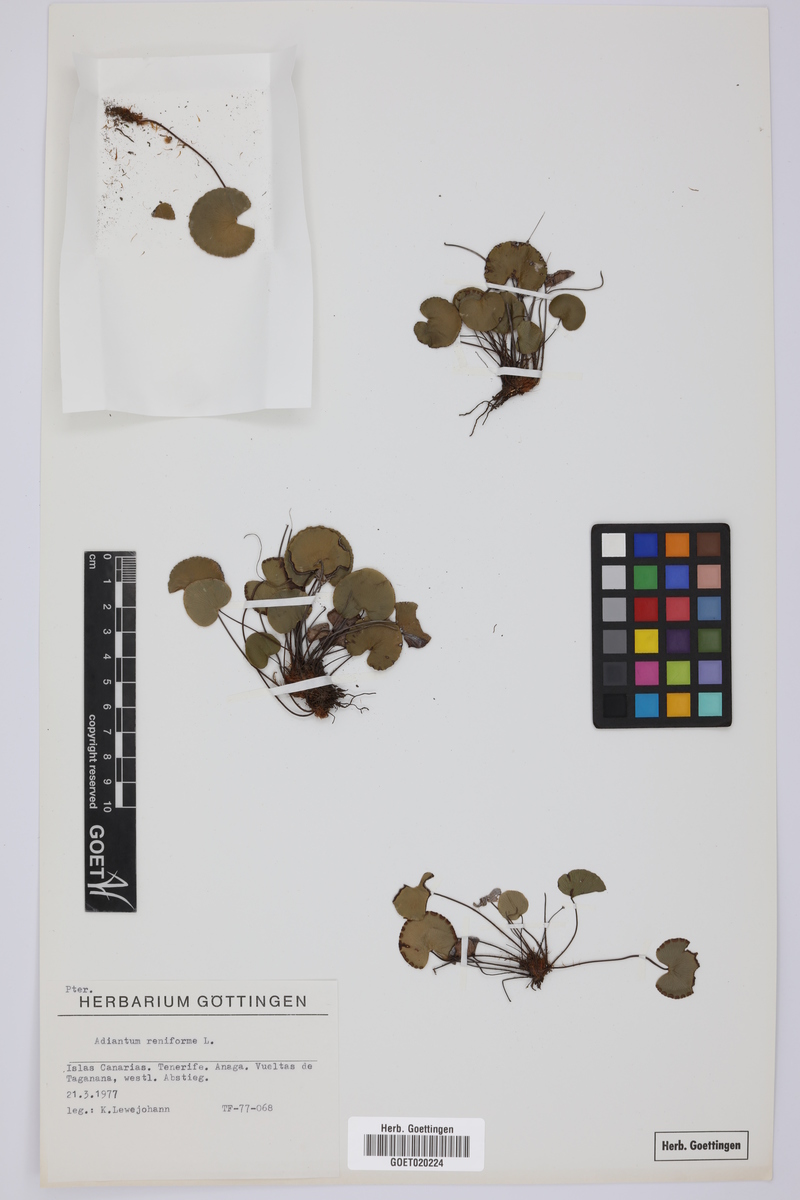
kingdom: Plantae
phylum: Tracheophyta
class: Polypodiopsida
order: Polypodiales
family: Pteridaceae
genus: Adiantum
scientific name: Adiantum reniforme
